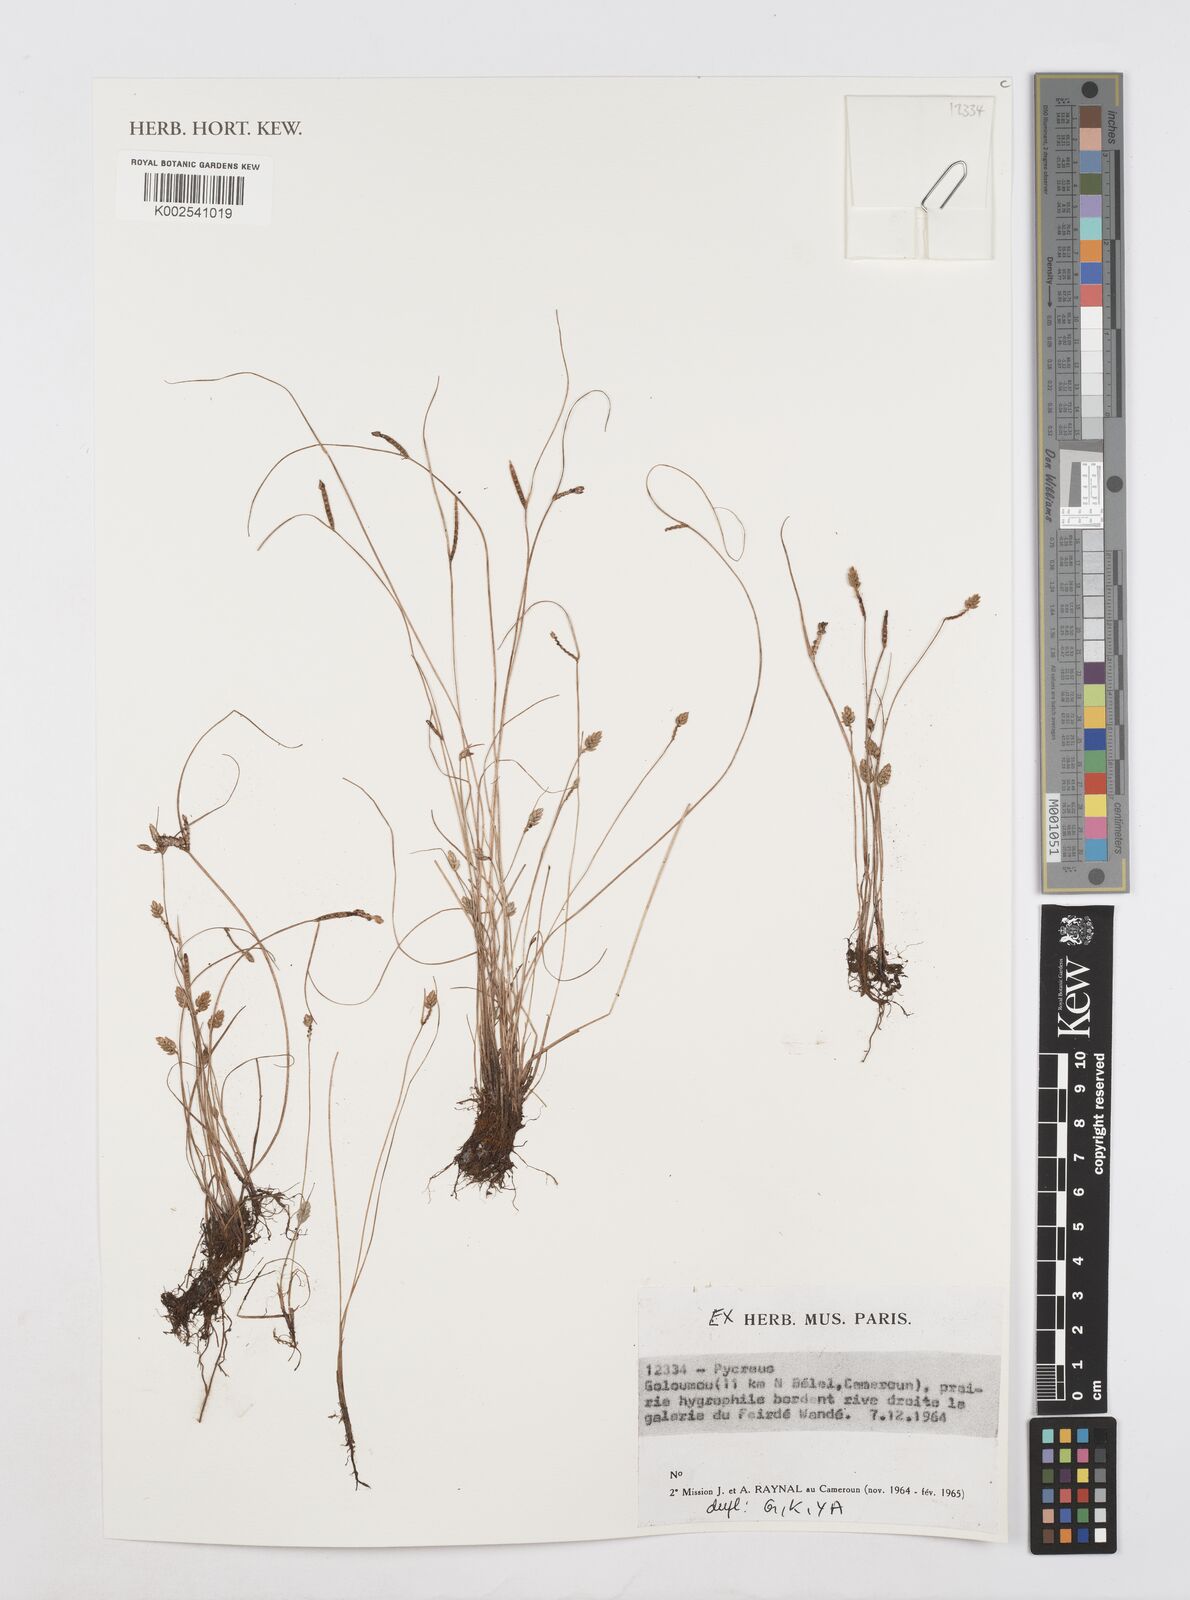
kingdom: Plantae
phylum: Tracheophyta
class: Liliopsida
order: Poales
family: Cyperaceae
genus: Cyperus
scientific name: Cyperus
